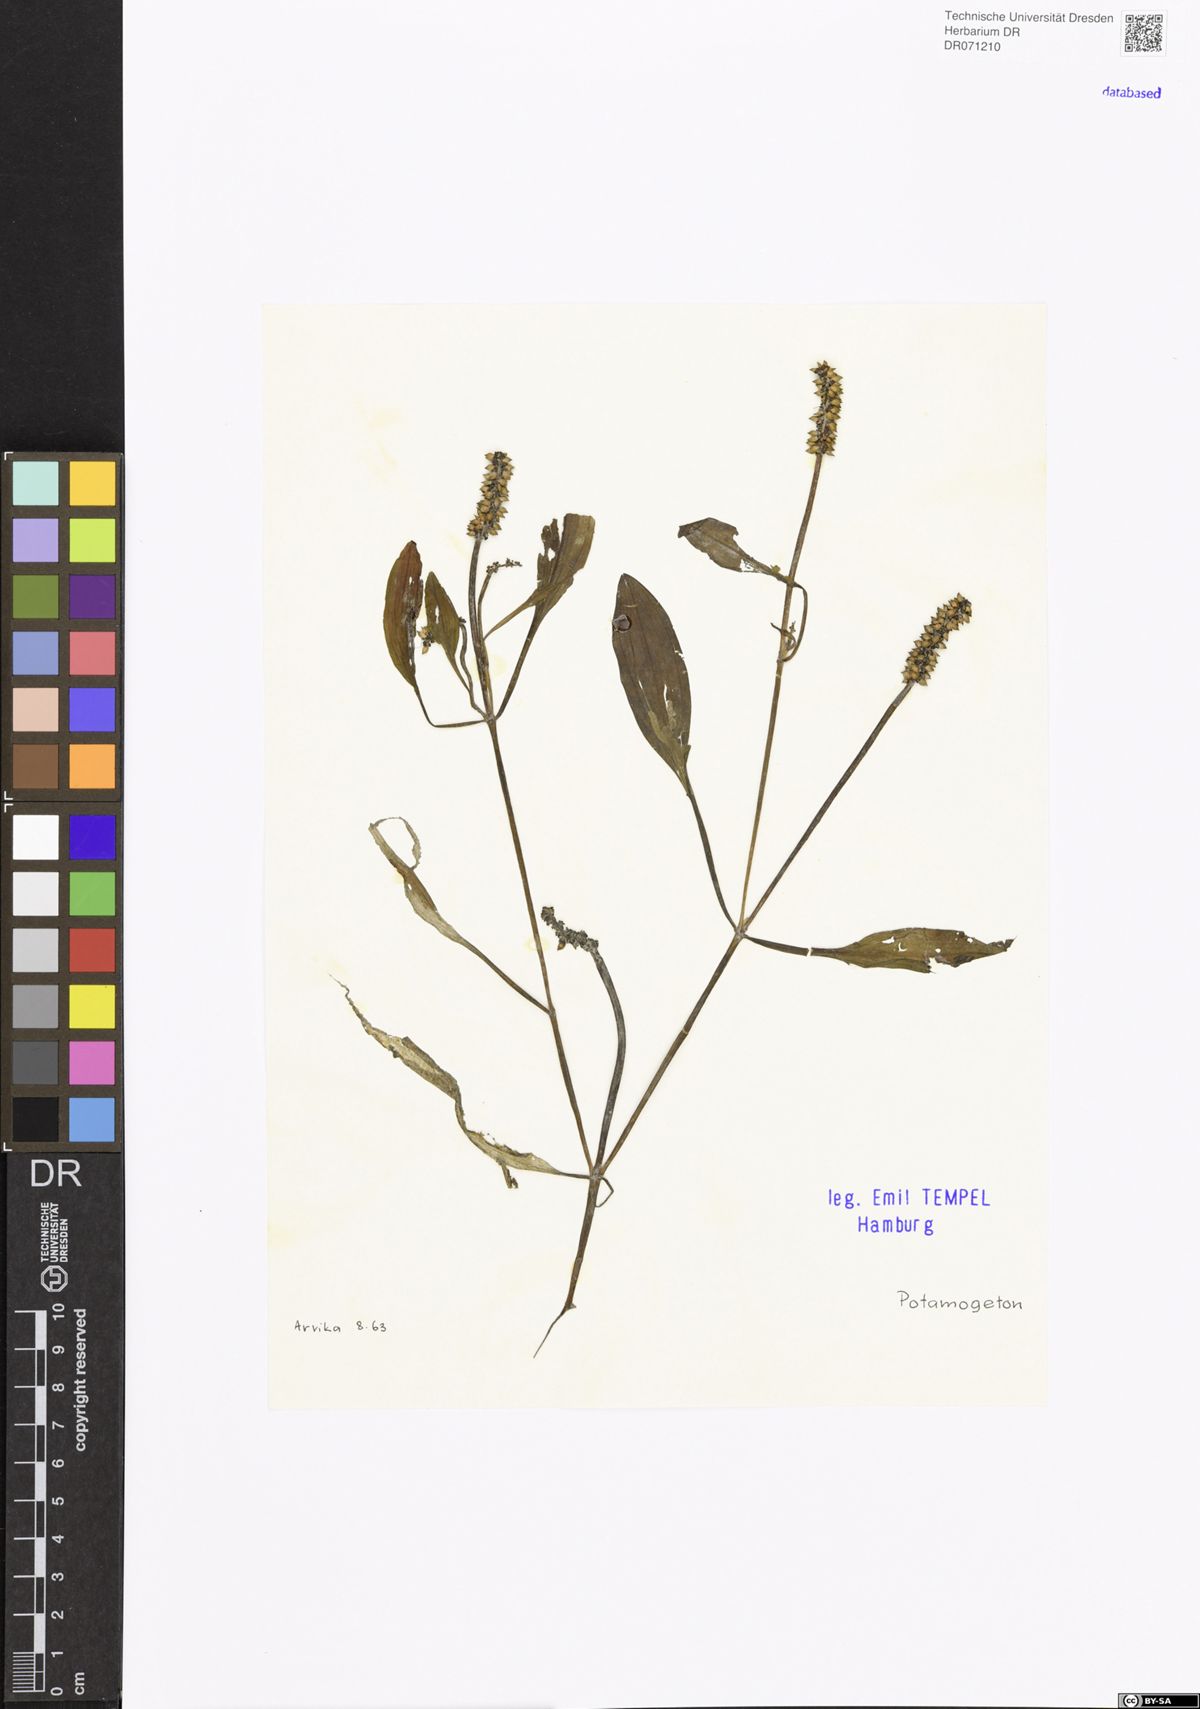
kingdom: Plantae
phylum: Tracheophyta
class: Liliopsida
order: Alismatales
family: Potamogetonaceae
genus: Potamogeton
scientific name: Potamogeton
